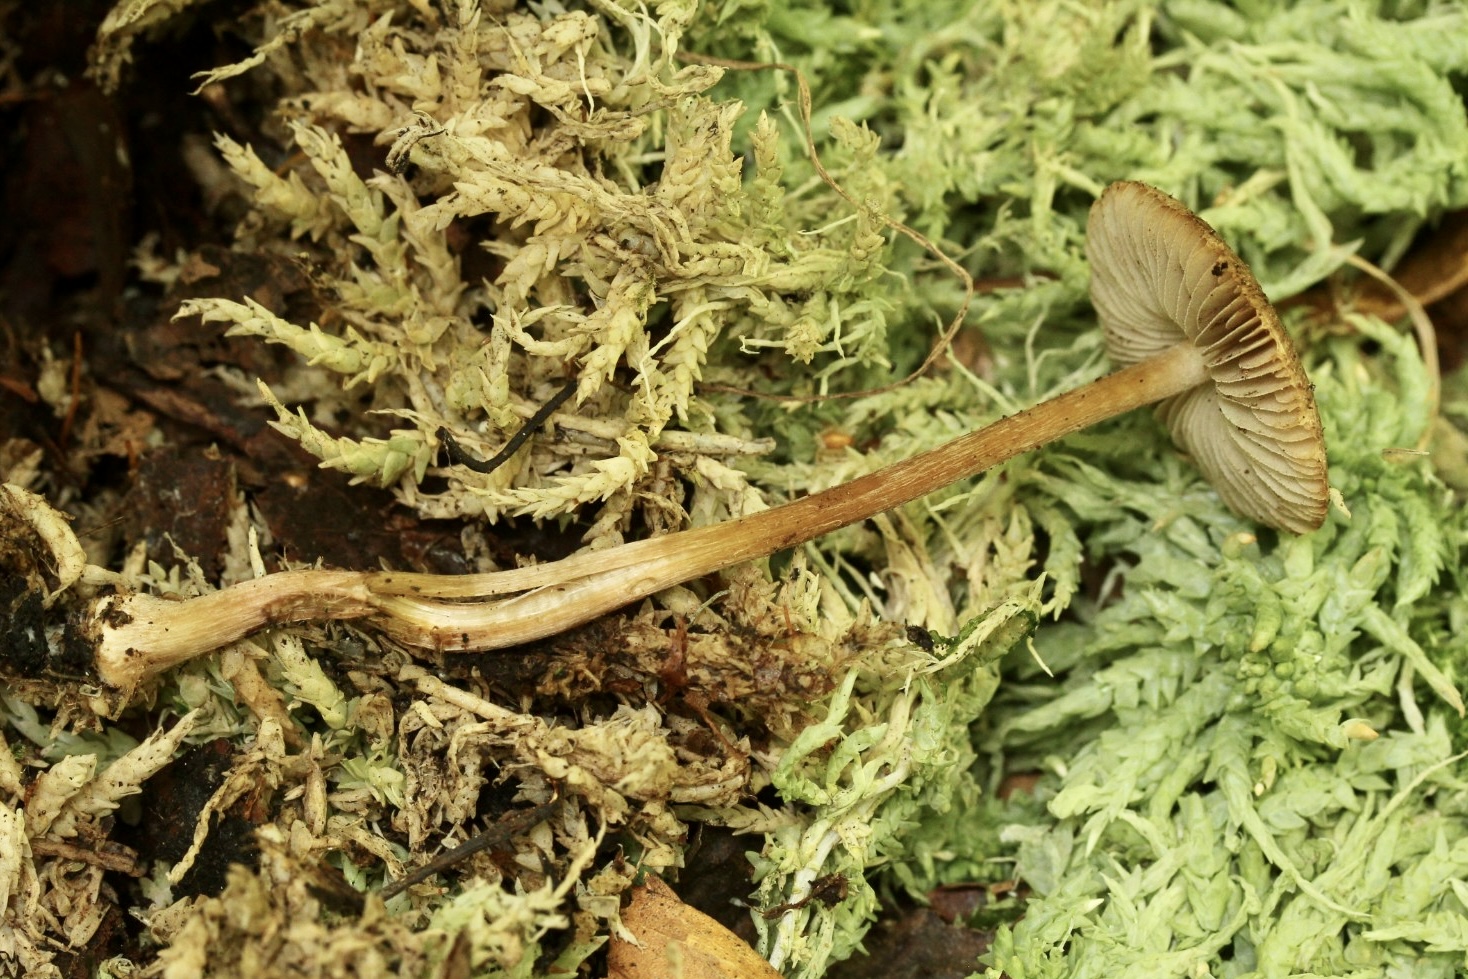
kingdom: Fungi
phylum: Basidiomycota
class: Agaricomycetes
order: Agaricales
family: Inocybaceae
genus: Inocybe
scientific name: Inocybe napipes
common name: roeknoldet trævlhat
